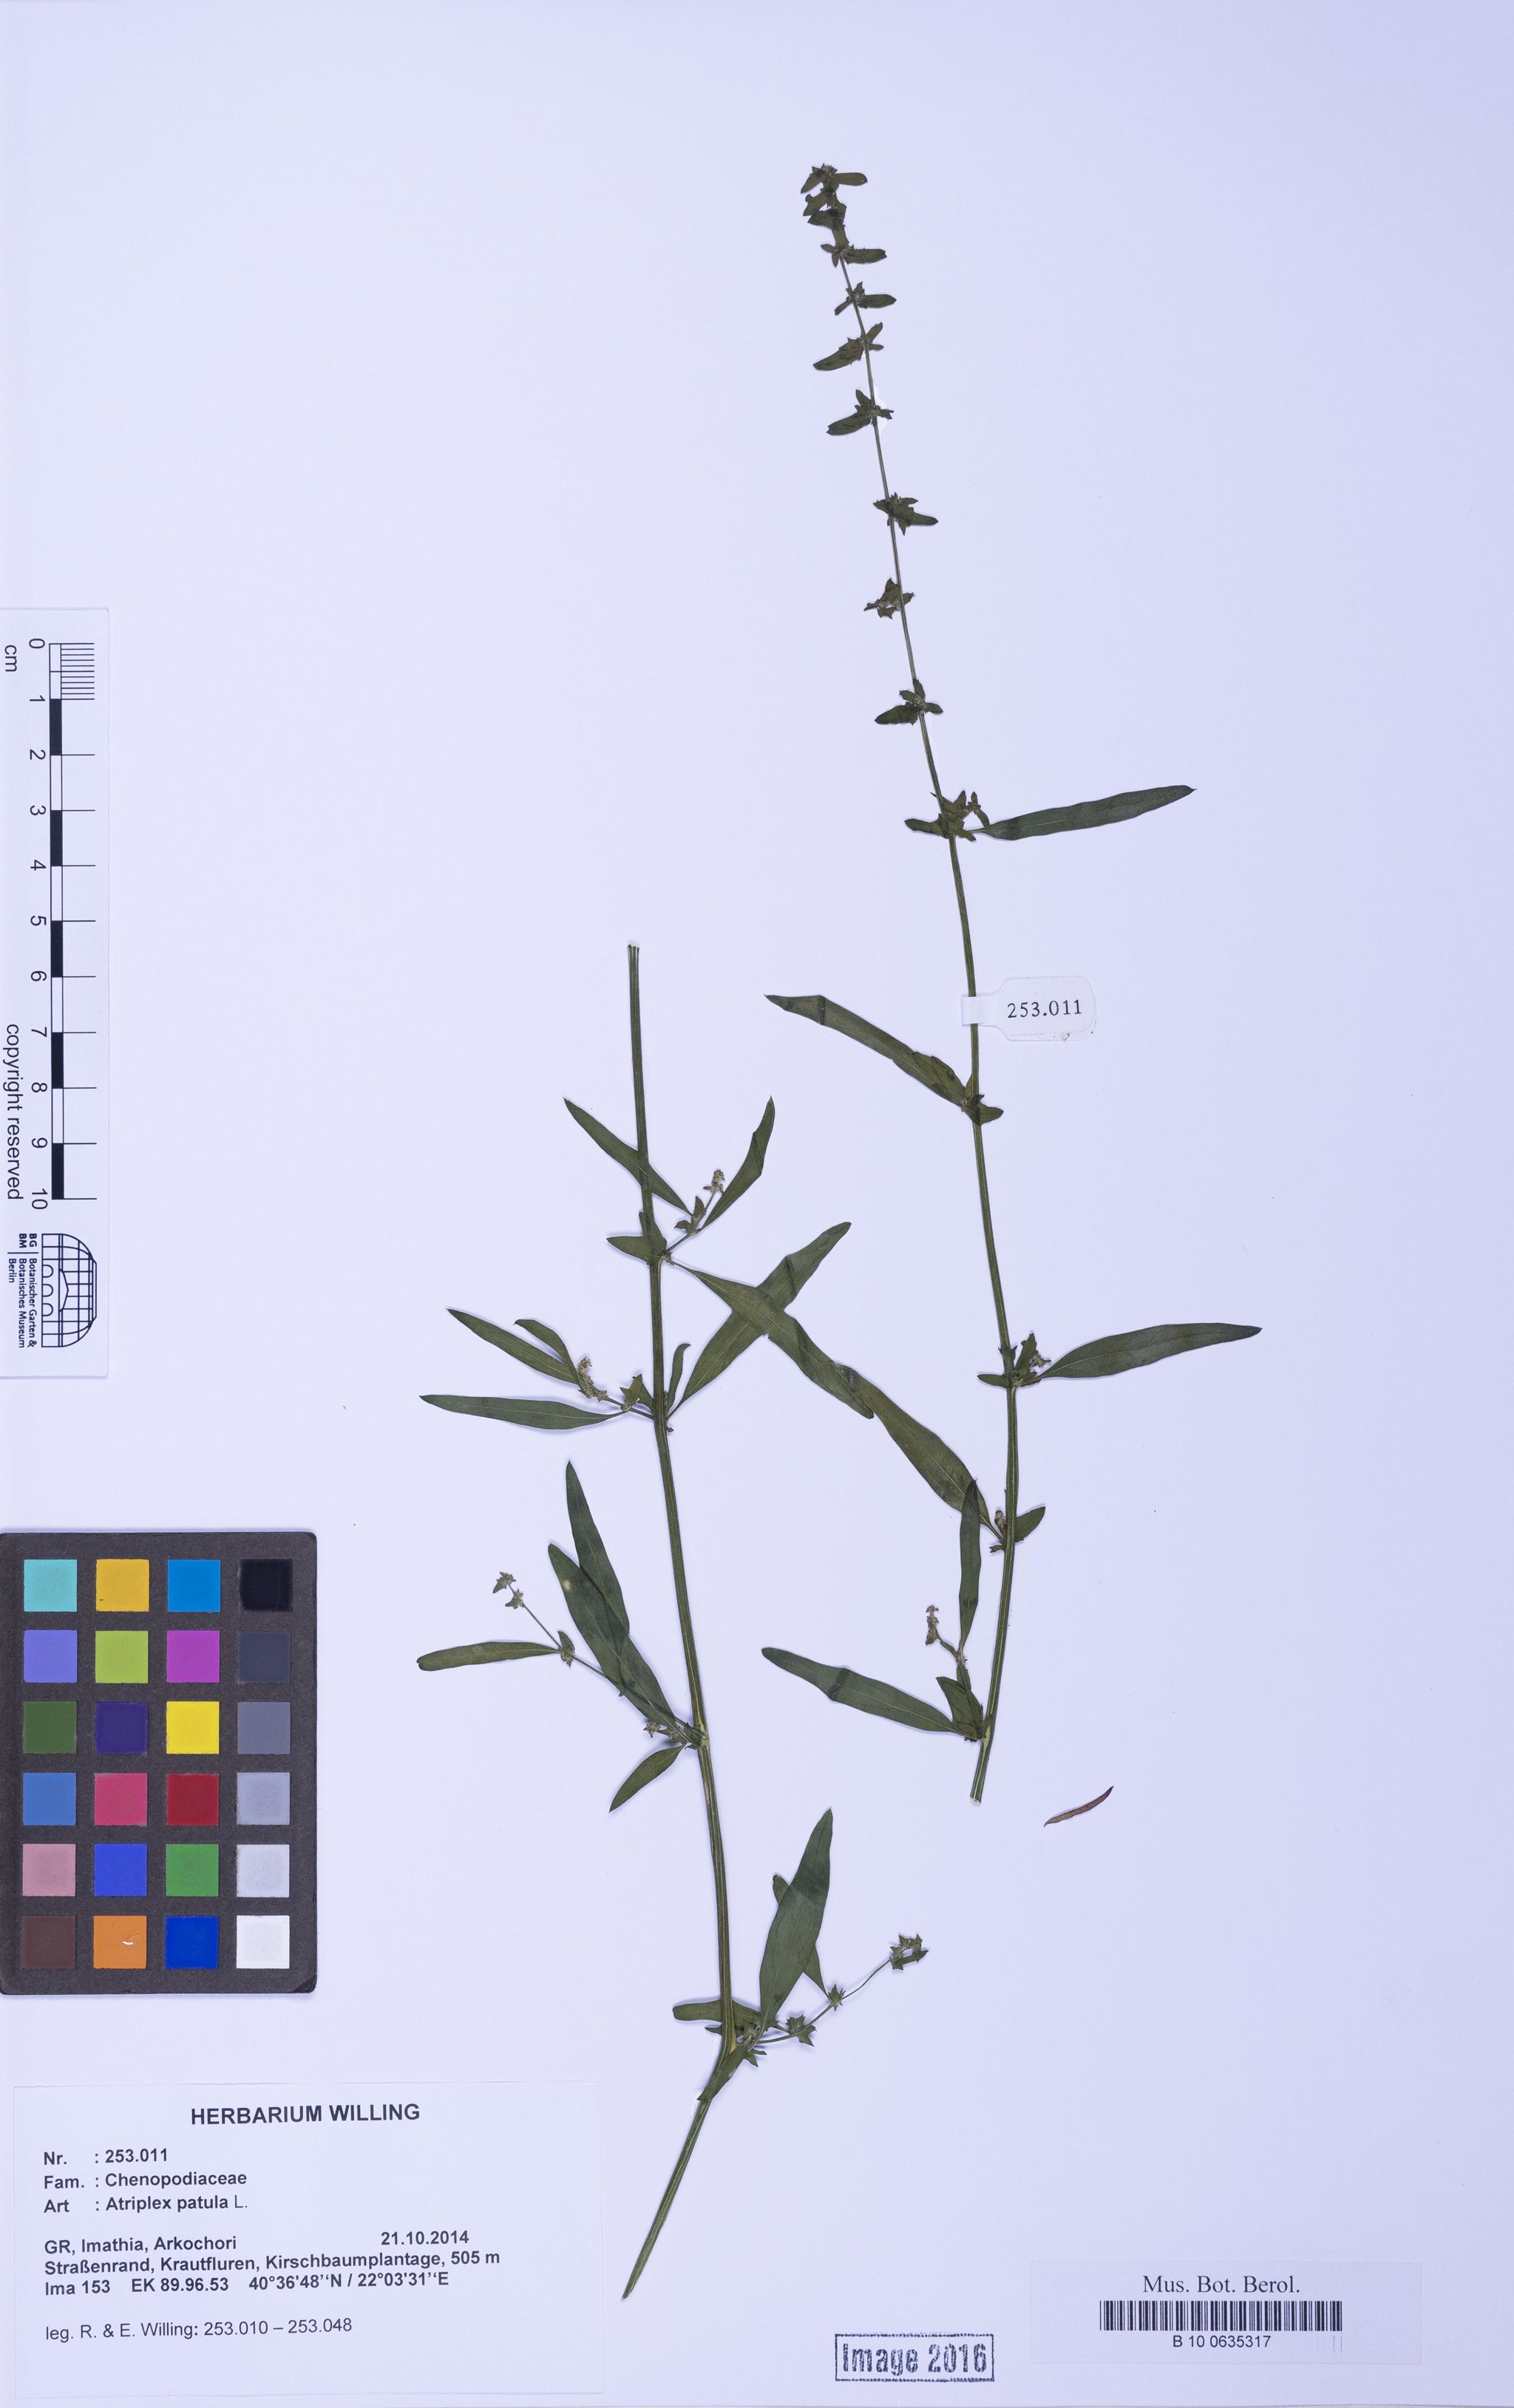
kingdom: Plantae
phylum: Tracheophyta
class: Magnoliopsida
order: Caryophyllales
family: Amaranthaceae
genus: Atriplex
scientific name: Atriplex patula
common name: Common orache
